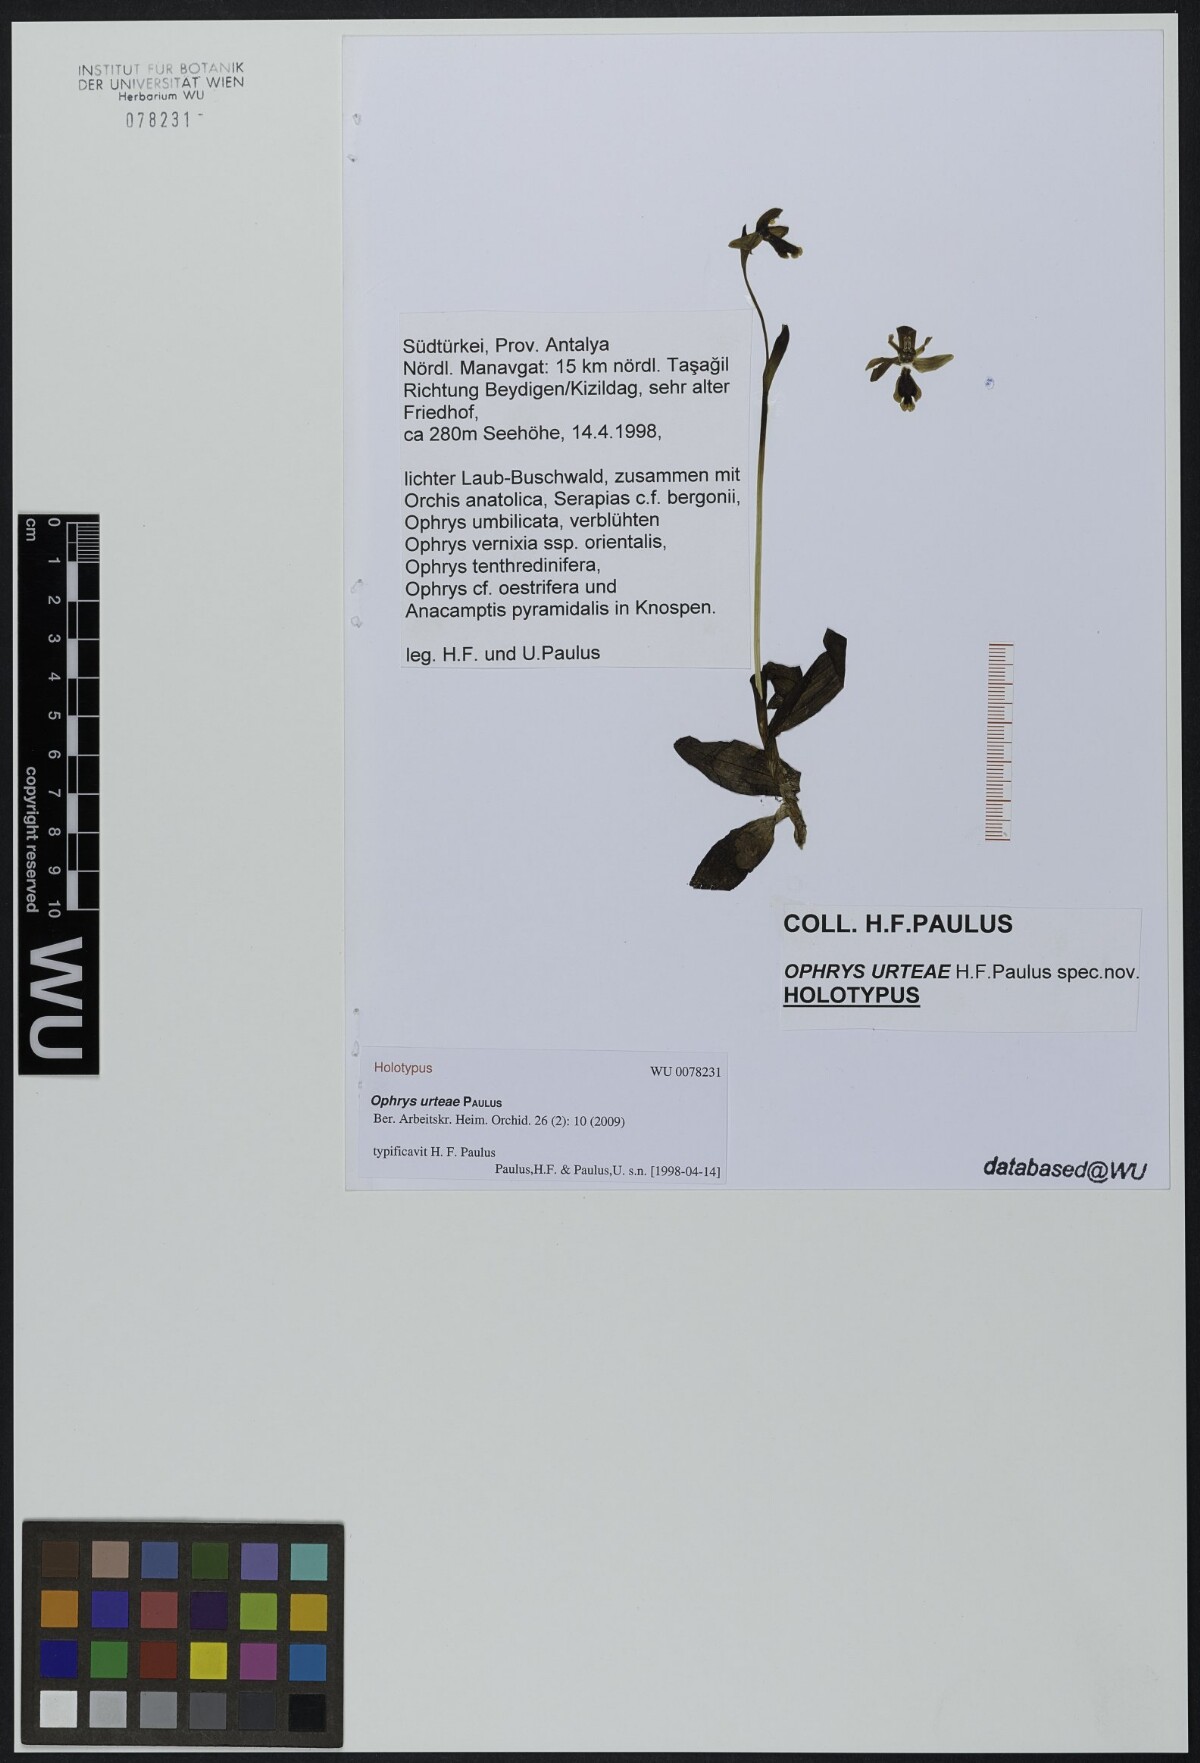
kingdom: Plantae
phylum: Tracheophyta
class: Liliopsida
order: Asparagales
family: Orchidaceae
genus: Ophrys
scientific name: Ophrys fusca
